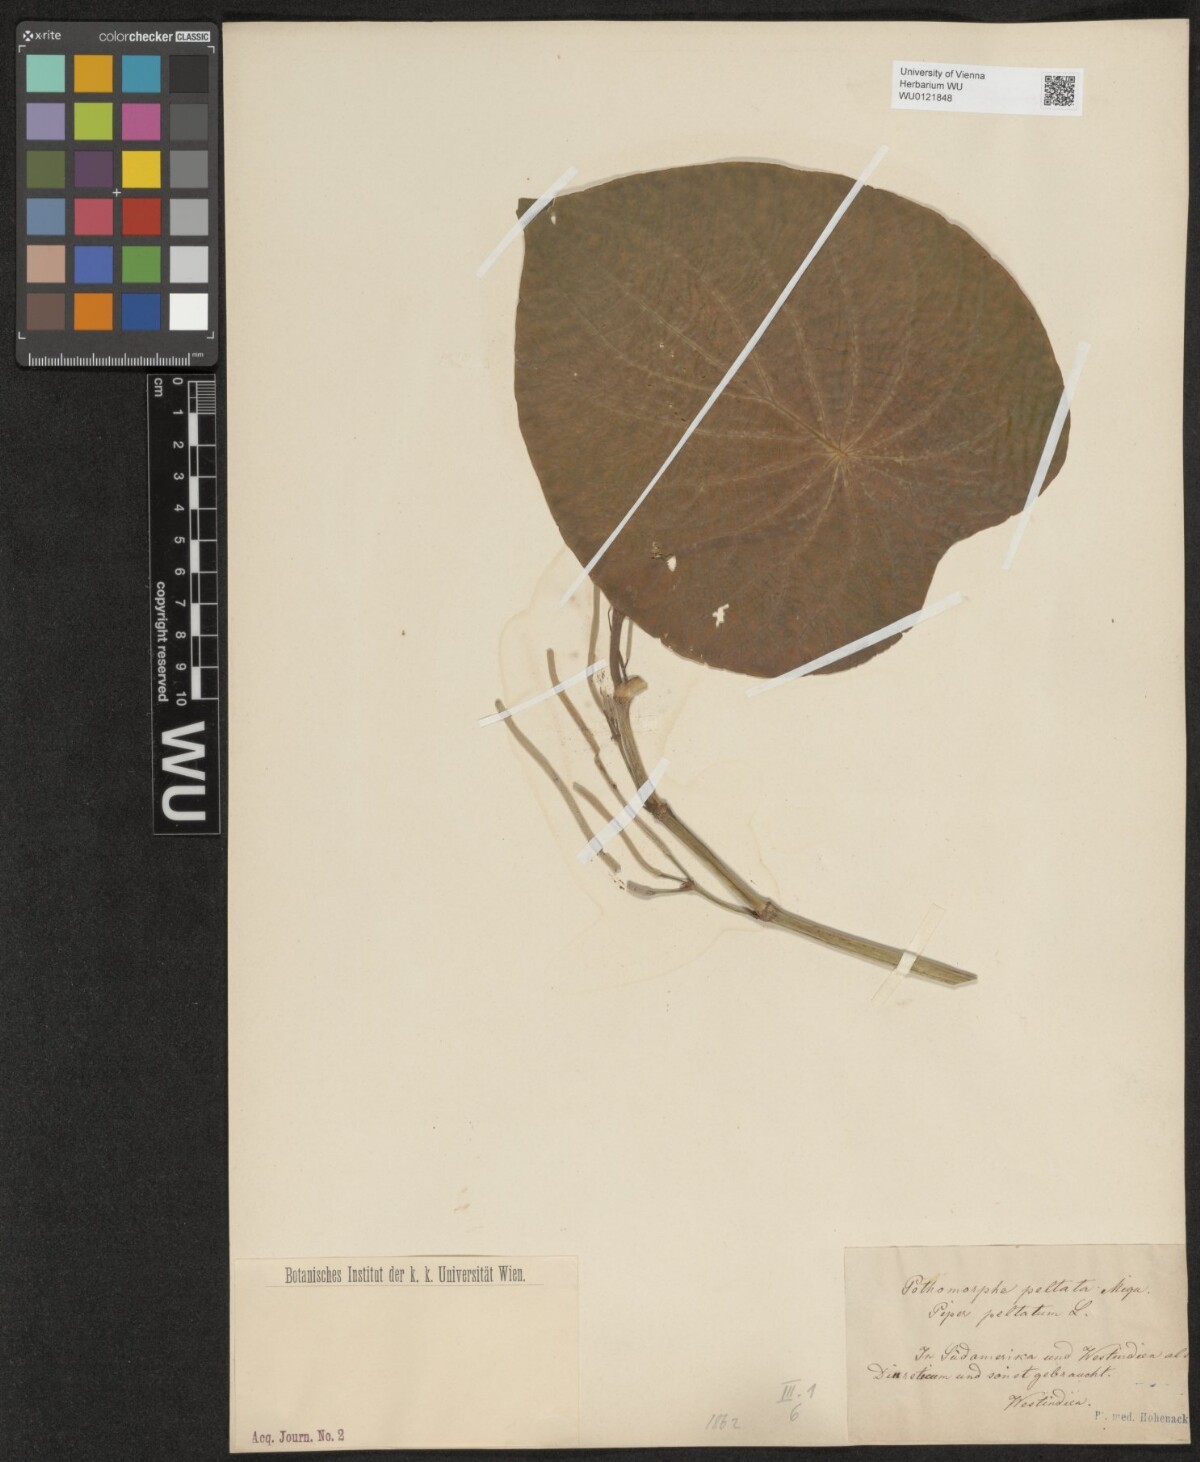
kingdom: Plantae
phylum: Tracheophyta
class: Magnoliopsida
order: Piperales
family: Piperaceae
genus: Piper
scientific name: Piper peltatum
